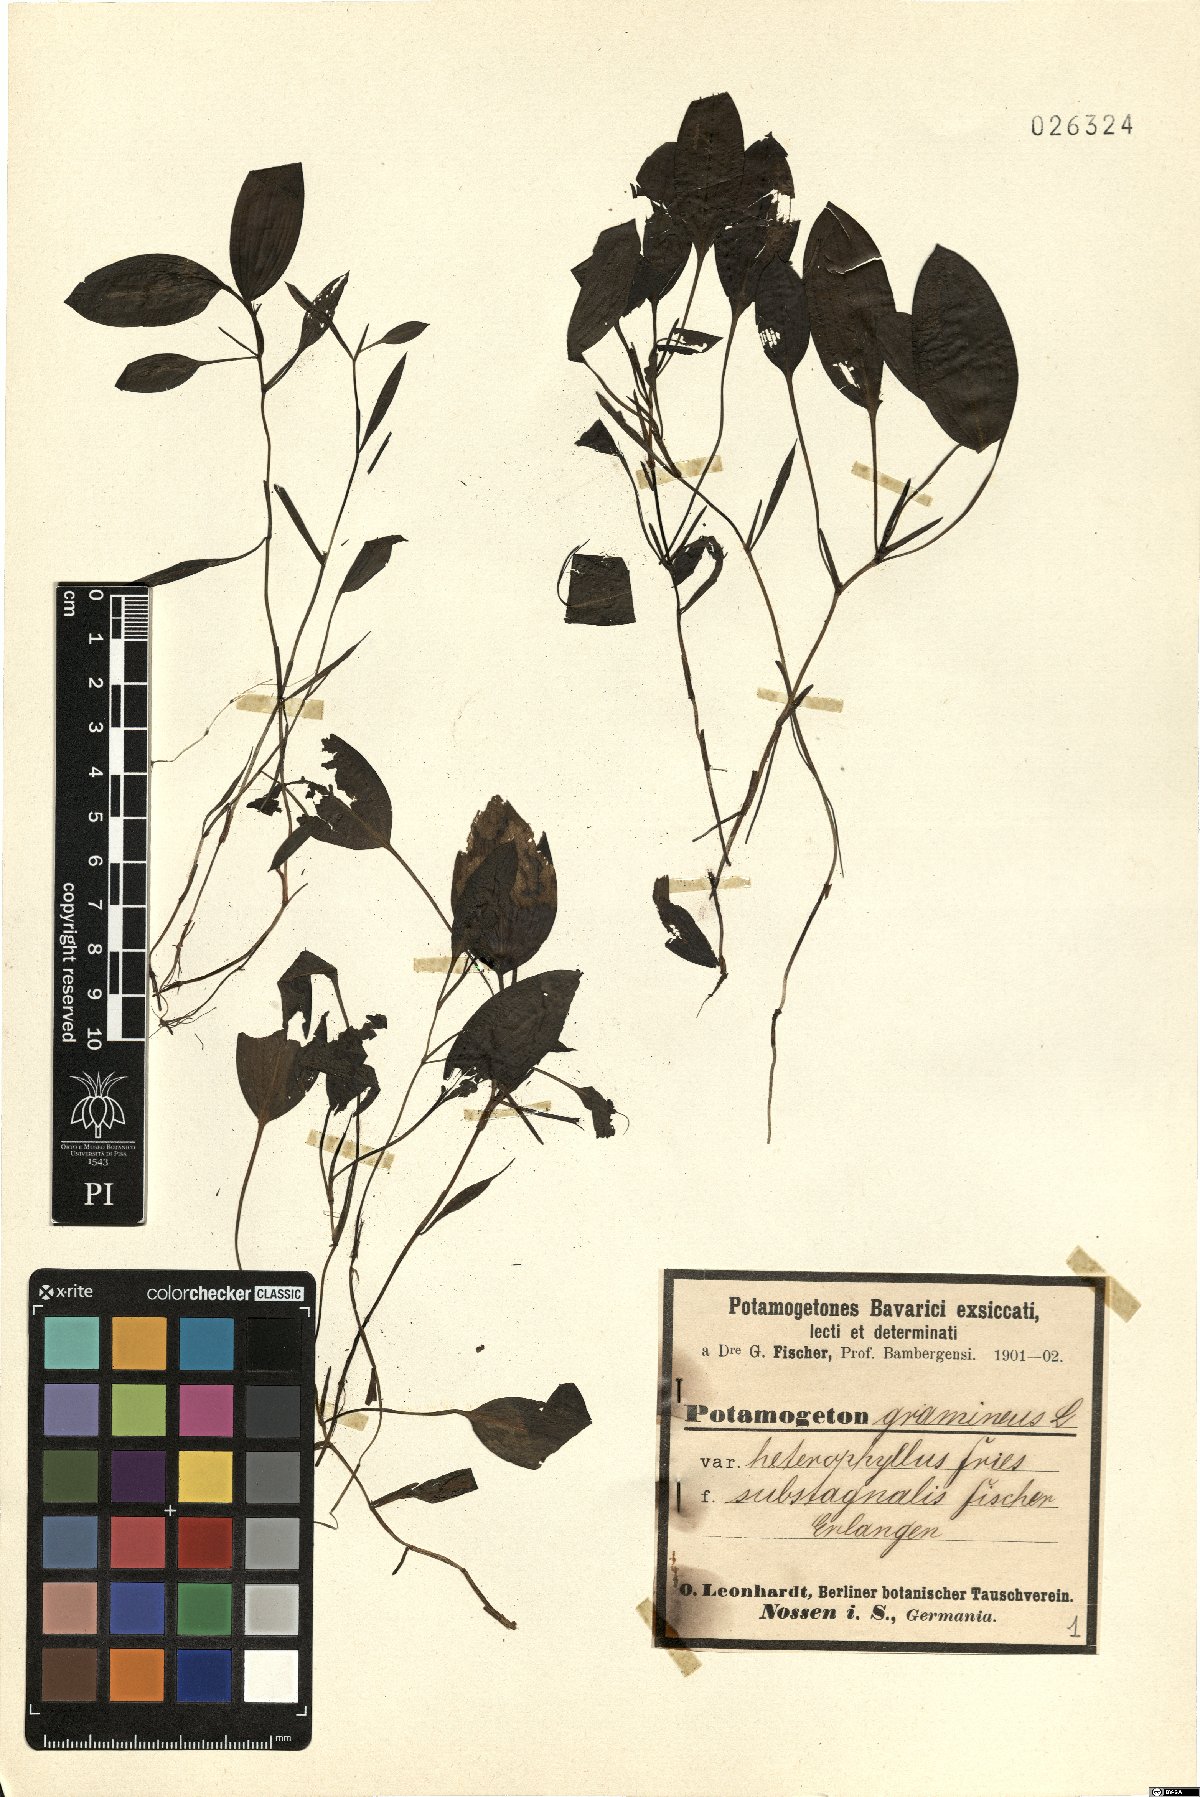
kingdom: Plantae
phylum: Tracheophyta
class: Liliopsida
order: Alismatales
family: Potamogetonaceae
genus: Potamogeton
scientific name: Potamogeton gramineus
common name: Various-leaved pondweed
